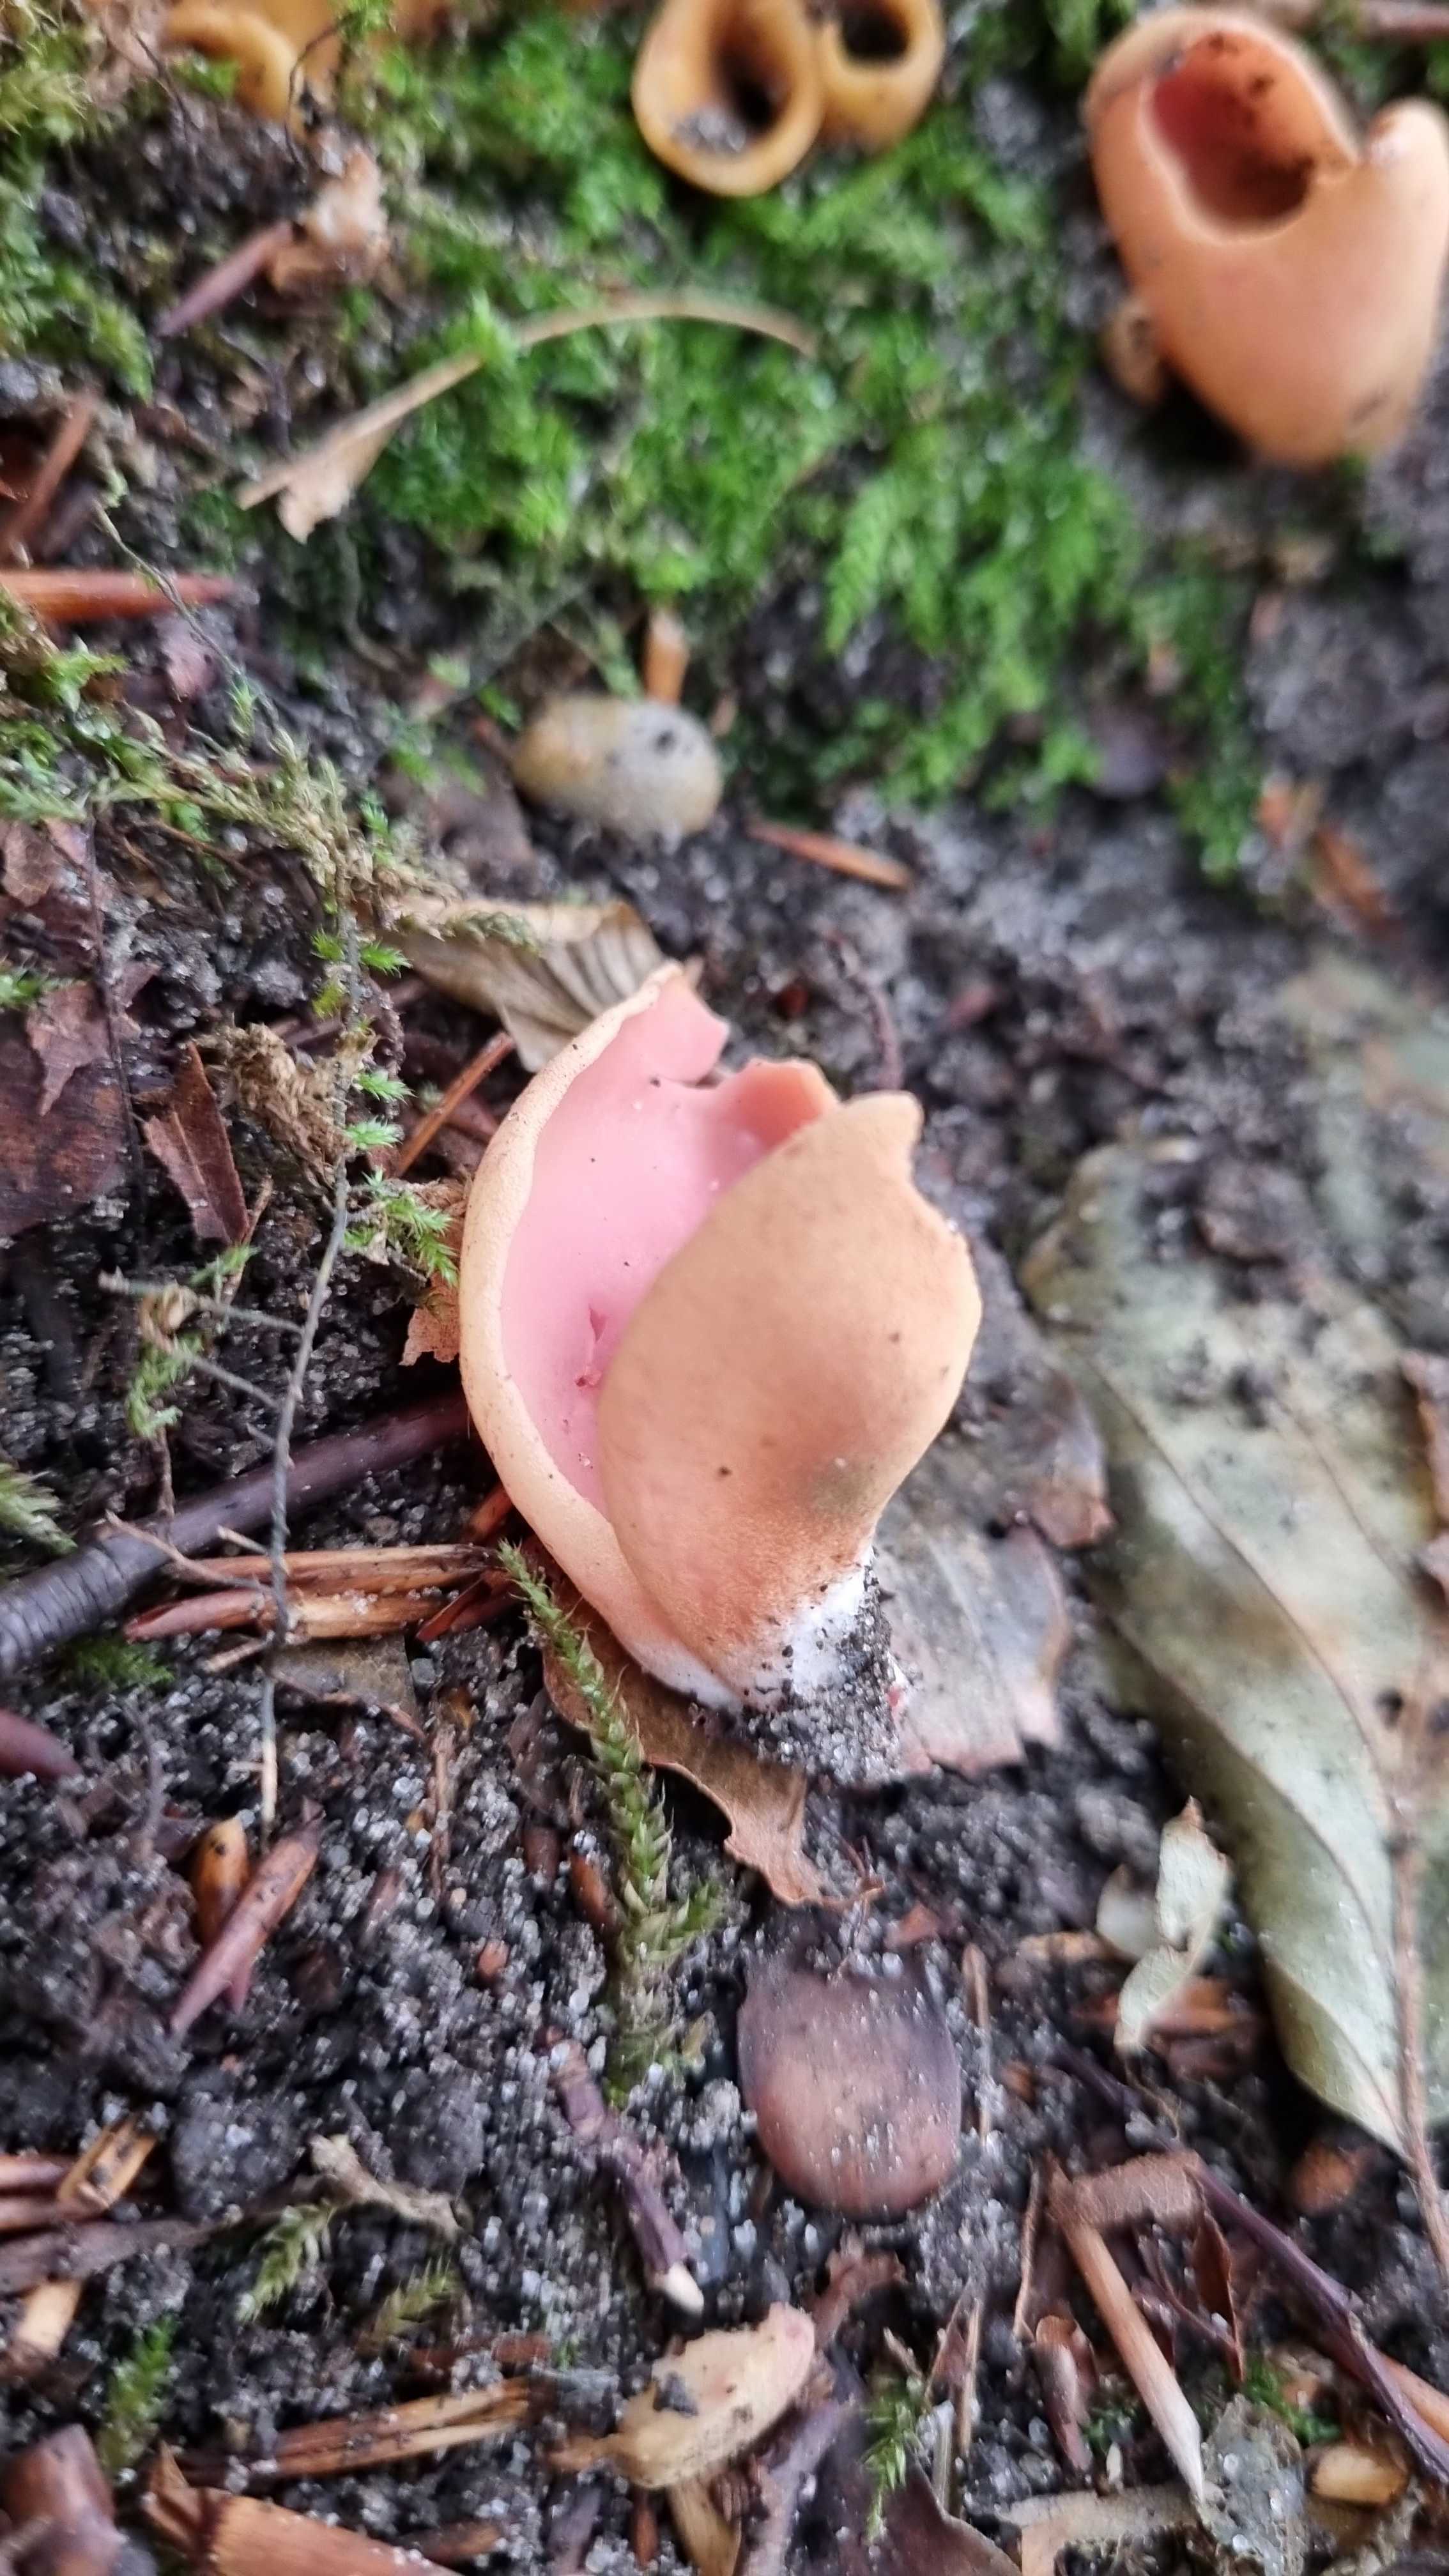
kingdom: Fungi
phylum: Ascomycota
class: Pezizomycetes
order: Pezizales
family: Otideaceae
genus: Otidea
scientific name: Otidea onotica
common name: æsel-ørebæger
